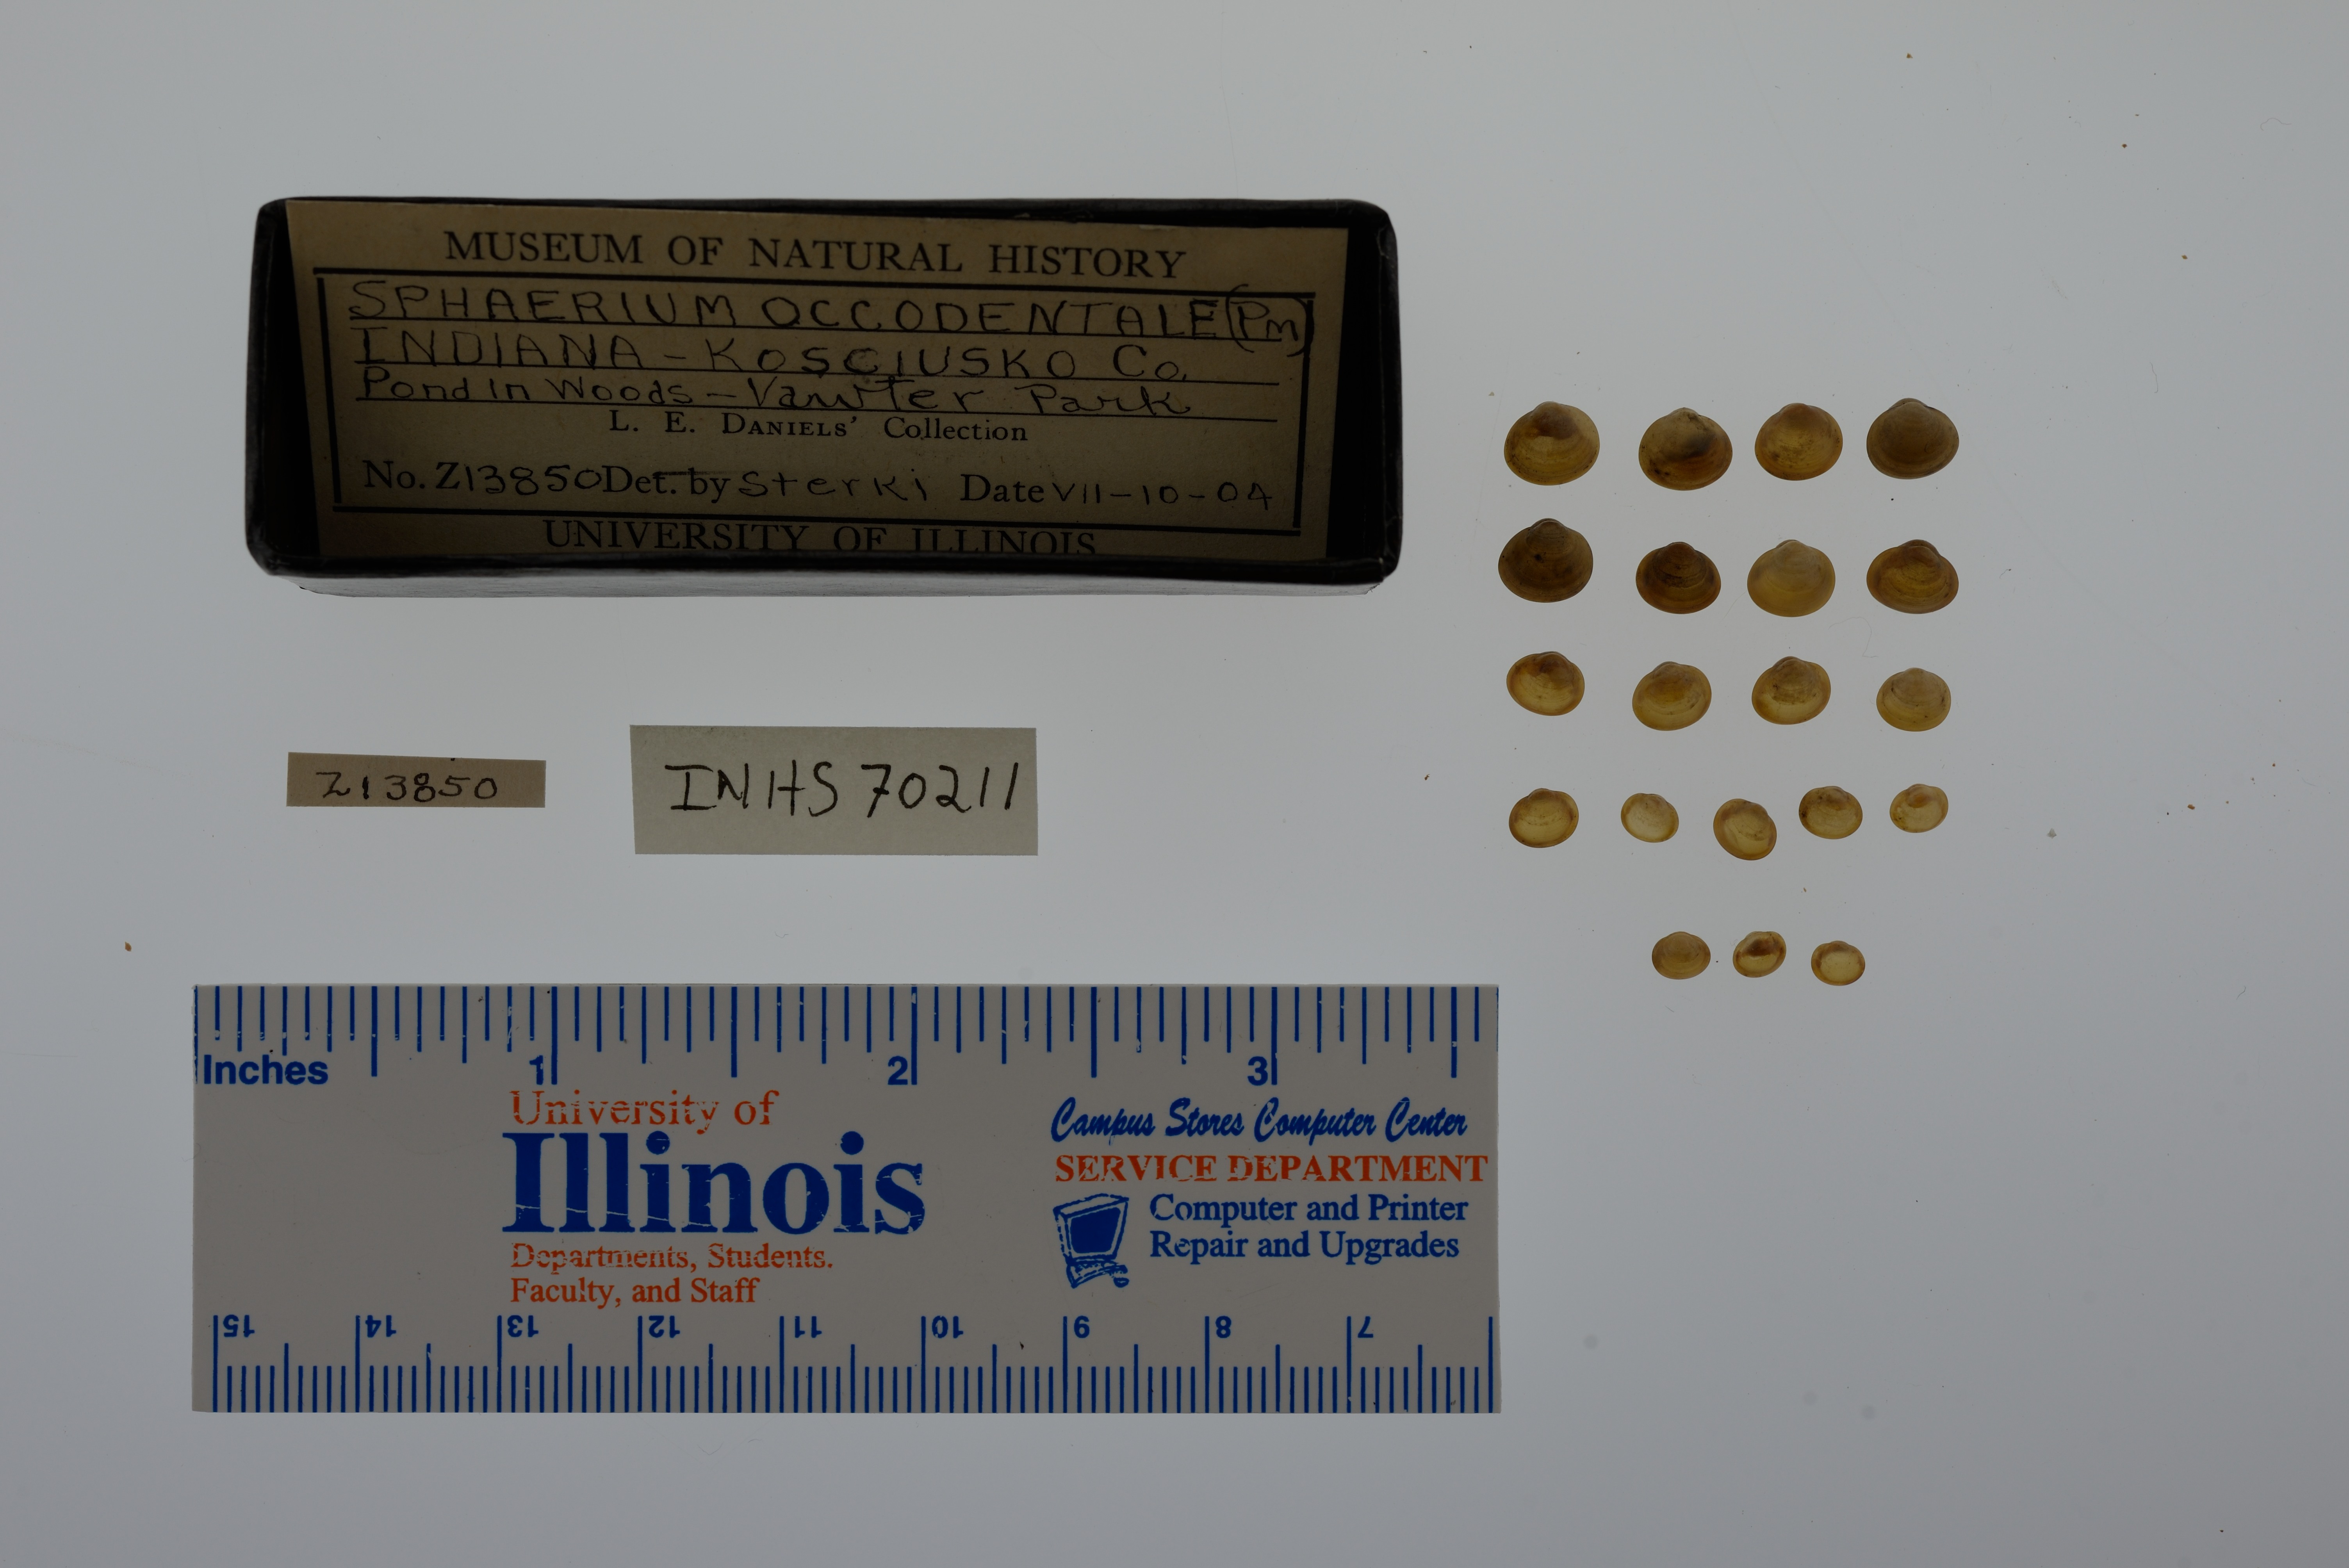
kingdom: Animalia
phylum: Mollusca
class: Bivalvia
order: Sphaeriida
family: Sphaeriidae
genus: Sphaerium
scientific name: Sphaerium occidentale
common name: Herrington fingernailclam
